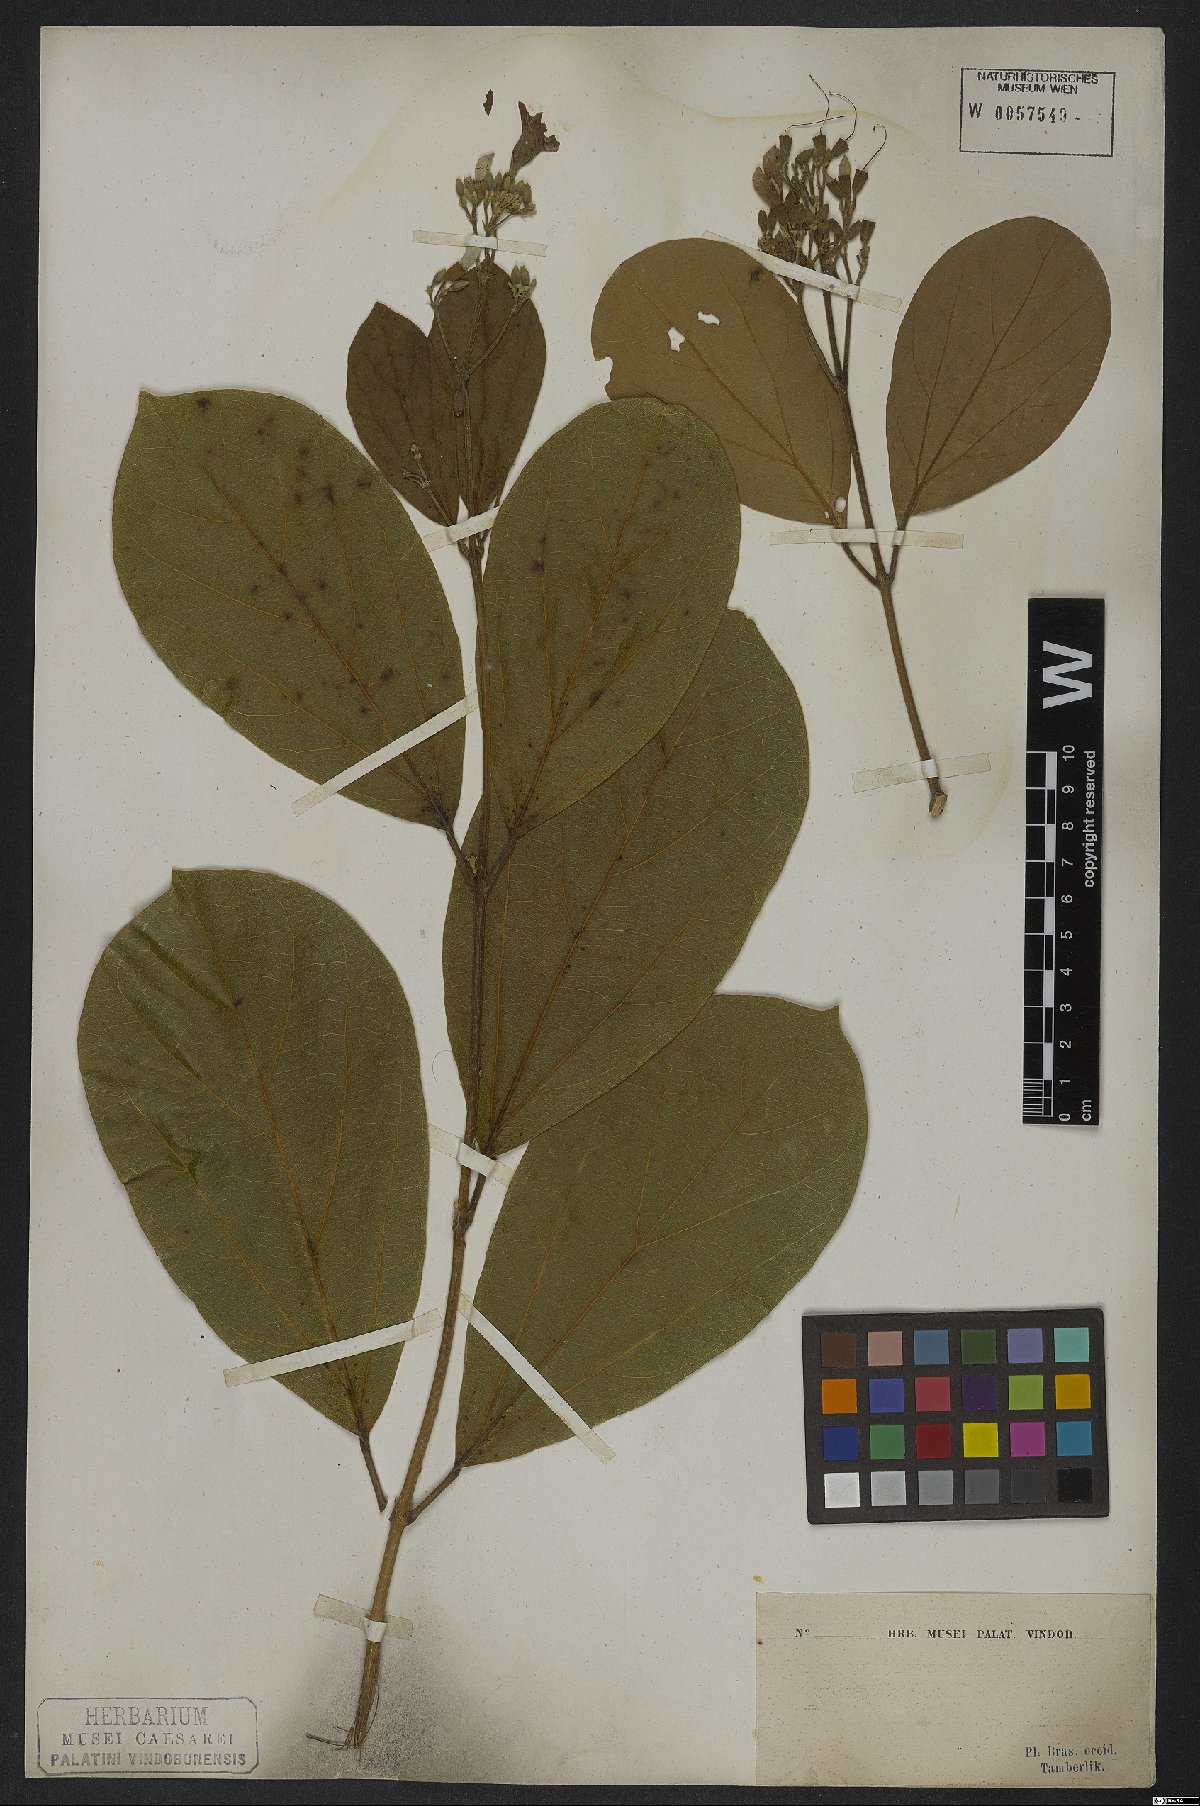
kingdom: Plantae
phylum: Tracheophyta
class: Magnoliopsida
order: Rosales
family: Rhamnaceae
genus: Arrabidaea
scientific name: Arrabidaea
